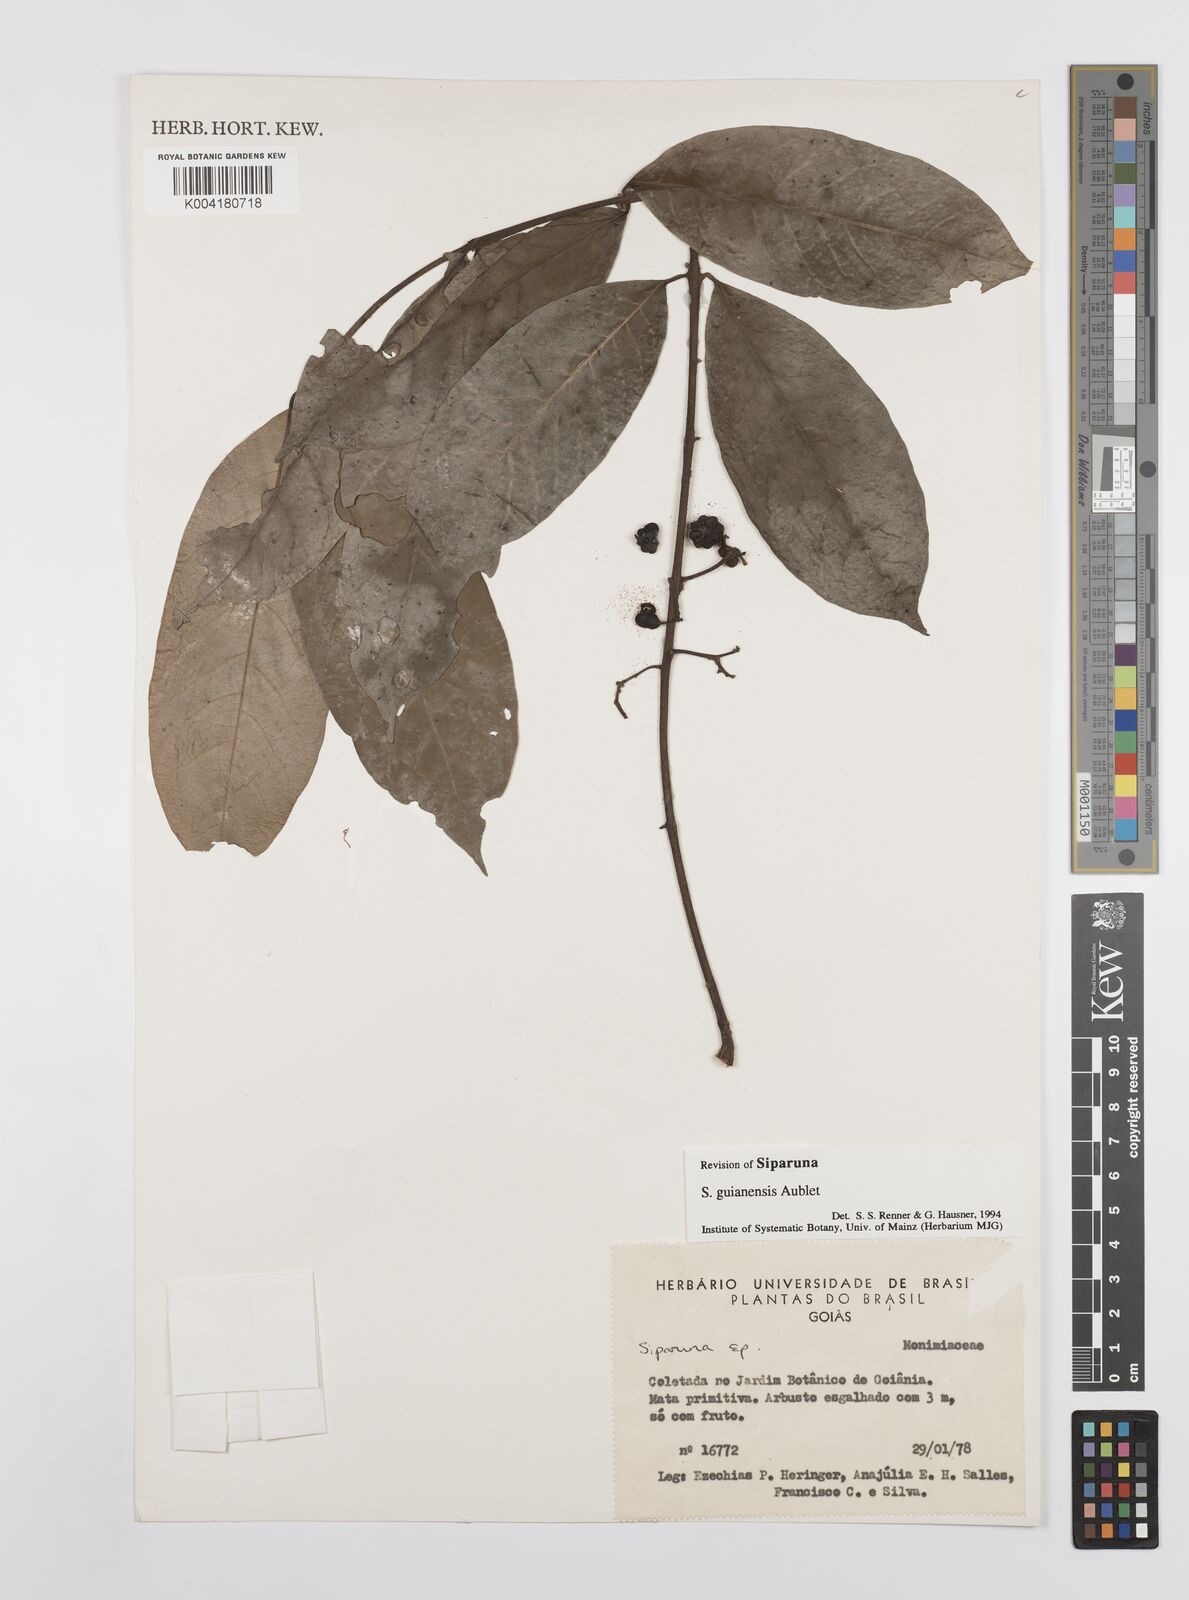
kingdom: Plantae
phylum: Tracheophyta
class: Magnoliopsida
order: Laurales
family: Siparunaceae
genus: Siparuna
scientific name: Siparuna guianensis
